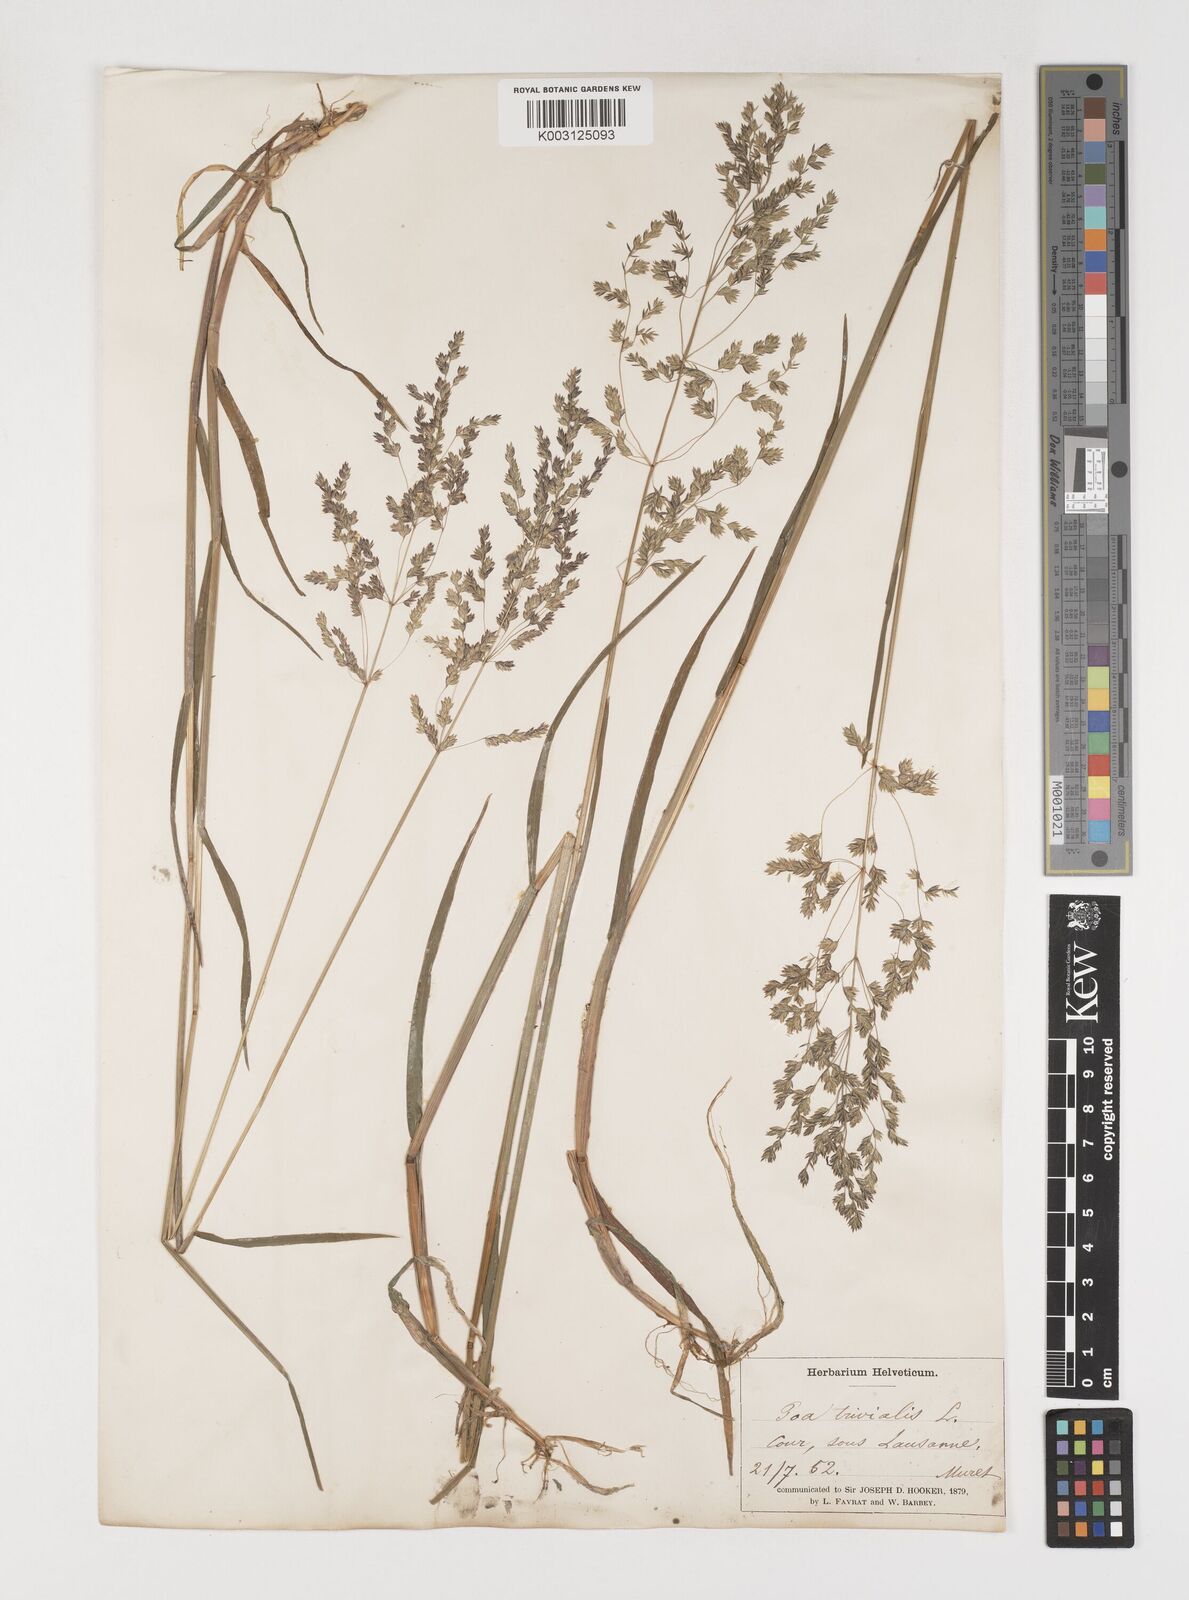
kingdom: Plantae
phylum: Tracheophyta
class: Liliopsida
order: Poales
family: Poaceae
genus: Poa
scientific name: Poa trivialis
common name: Rough bluegrass
